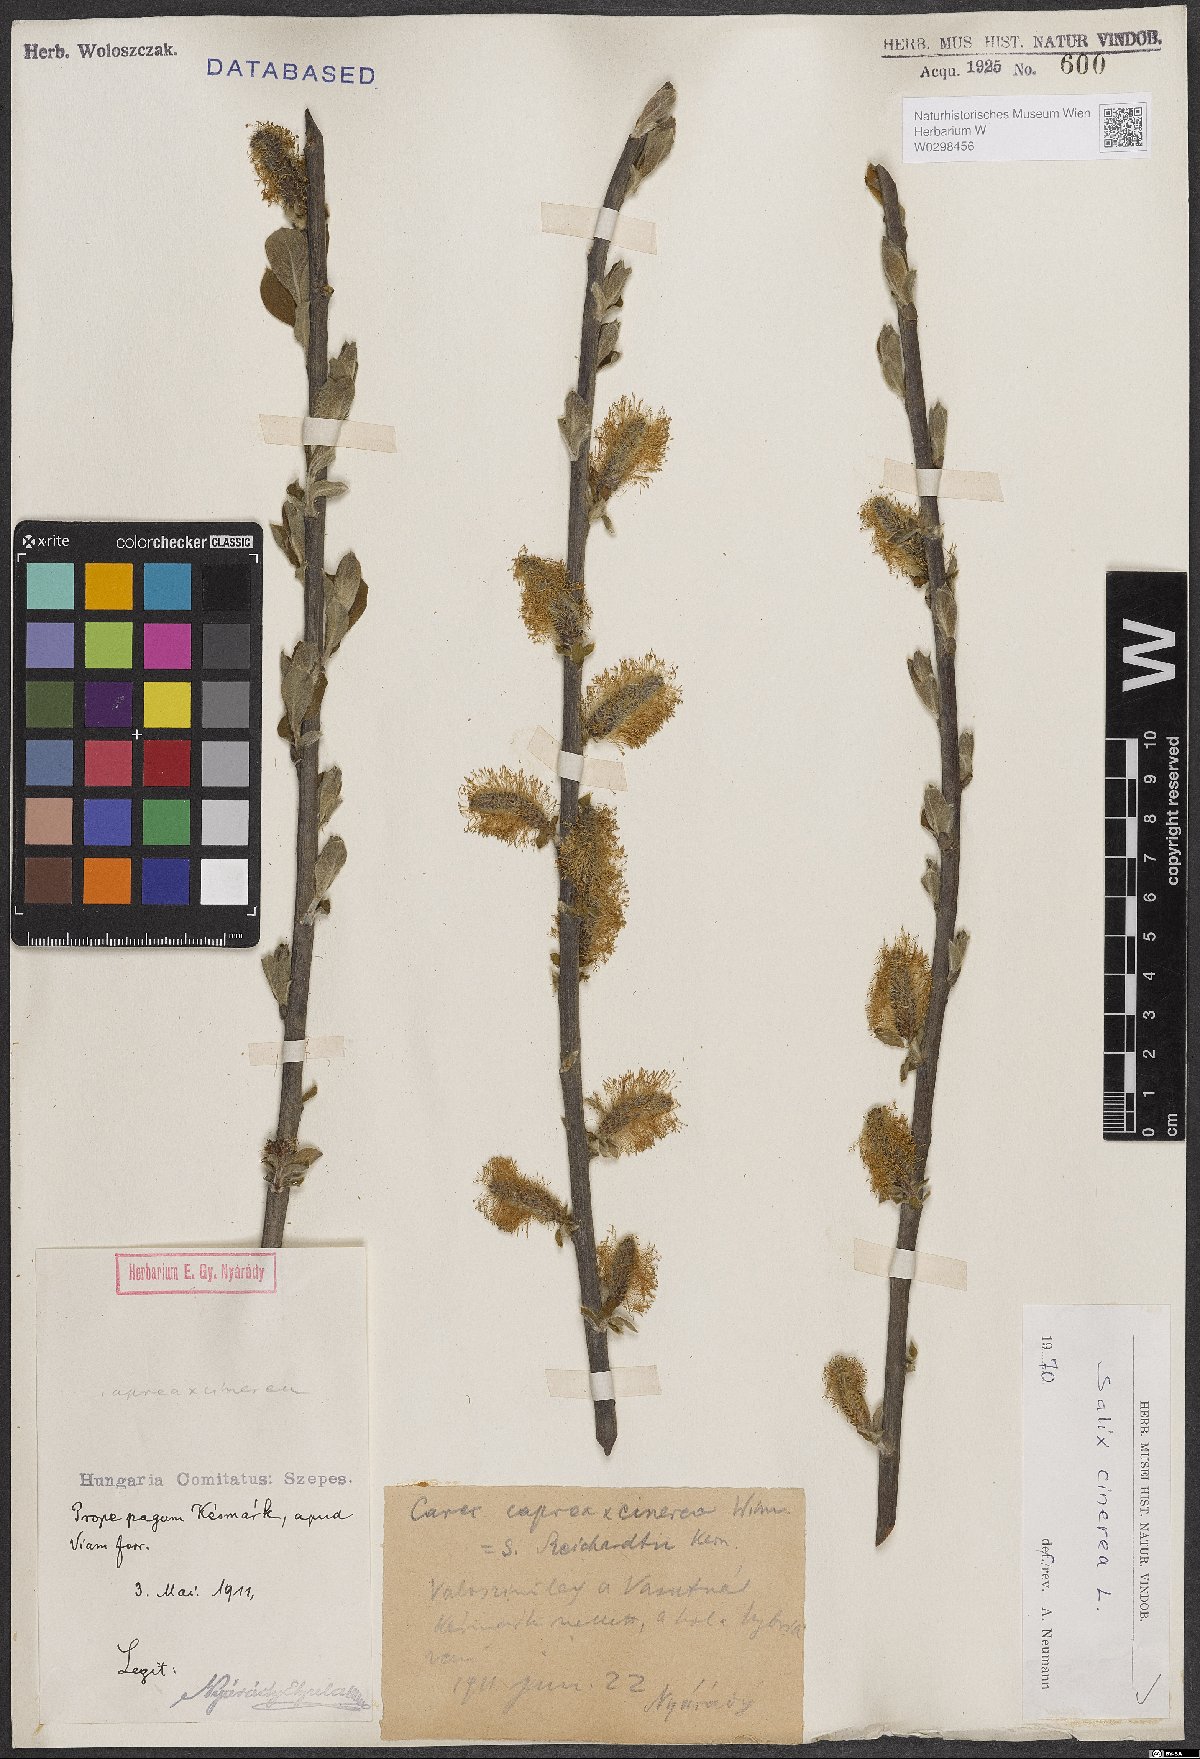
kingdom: Plantae
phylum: Tracheophyta
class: Magnoliopsida
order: Malpighiales
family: Salicaceae
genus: Salix
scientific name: Salix cinerea
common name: Common sallow
